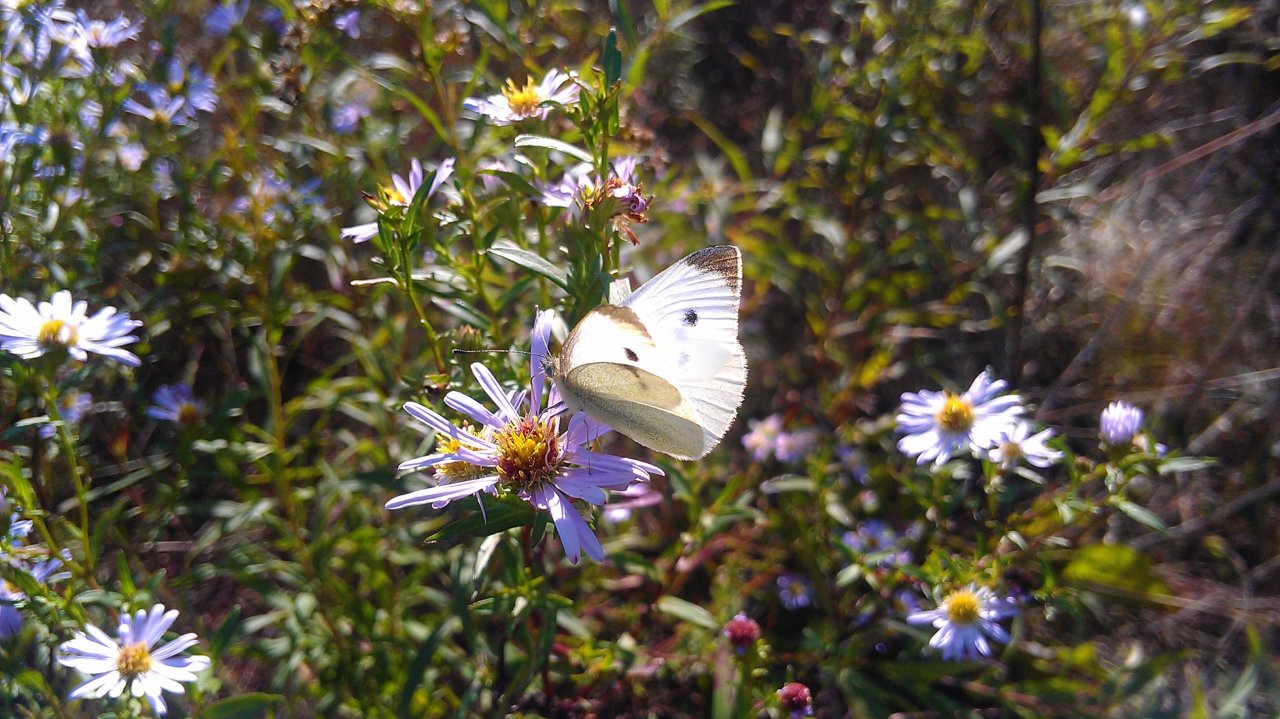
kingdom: Animalia
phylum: Arthropoda
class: Insecta
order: Lepidoptera
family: Pieridae
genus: Pieris
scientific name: Pieris rapae
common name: Cabbage White
